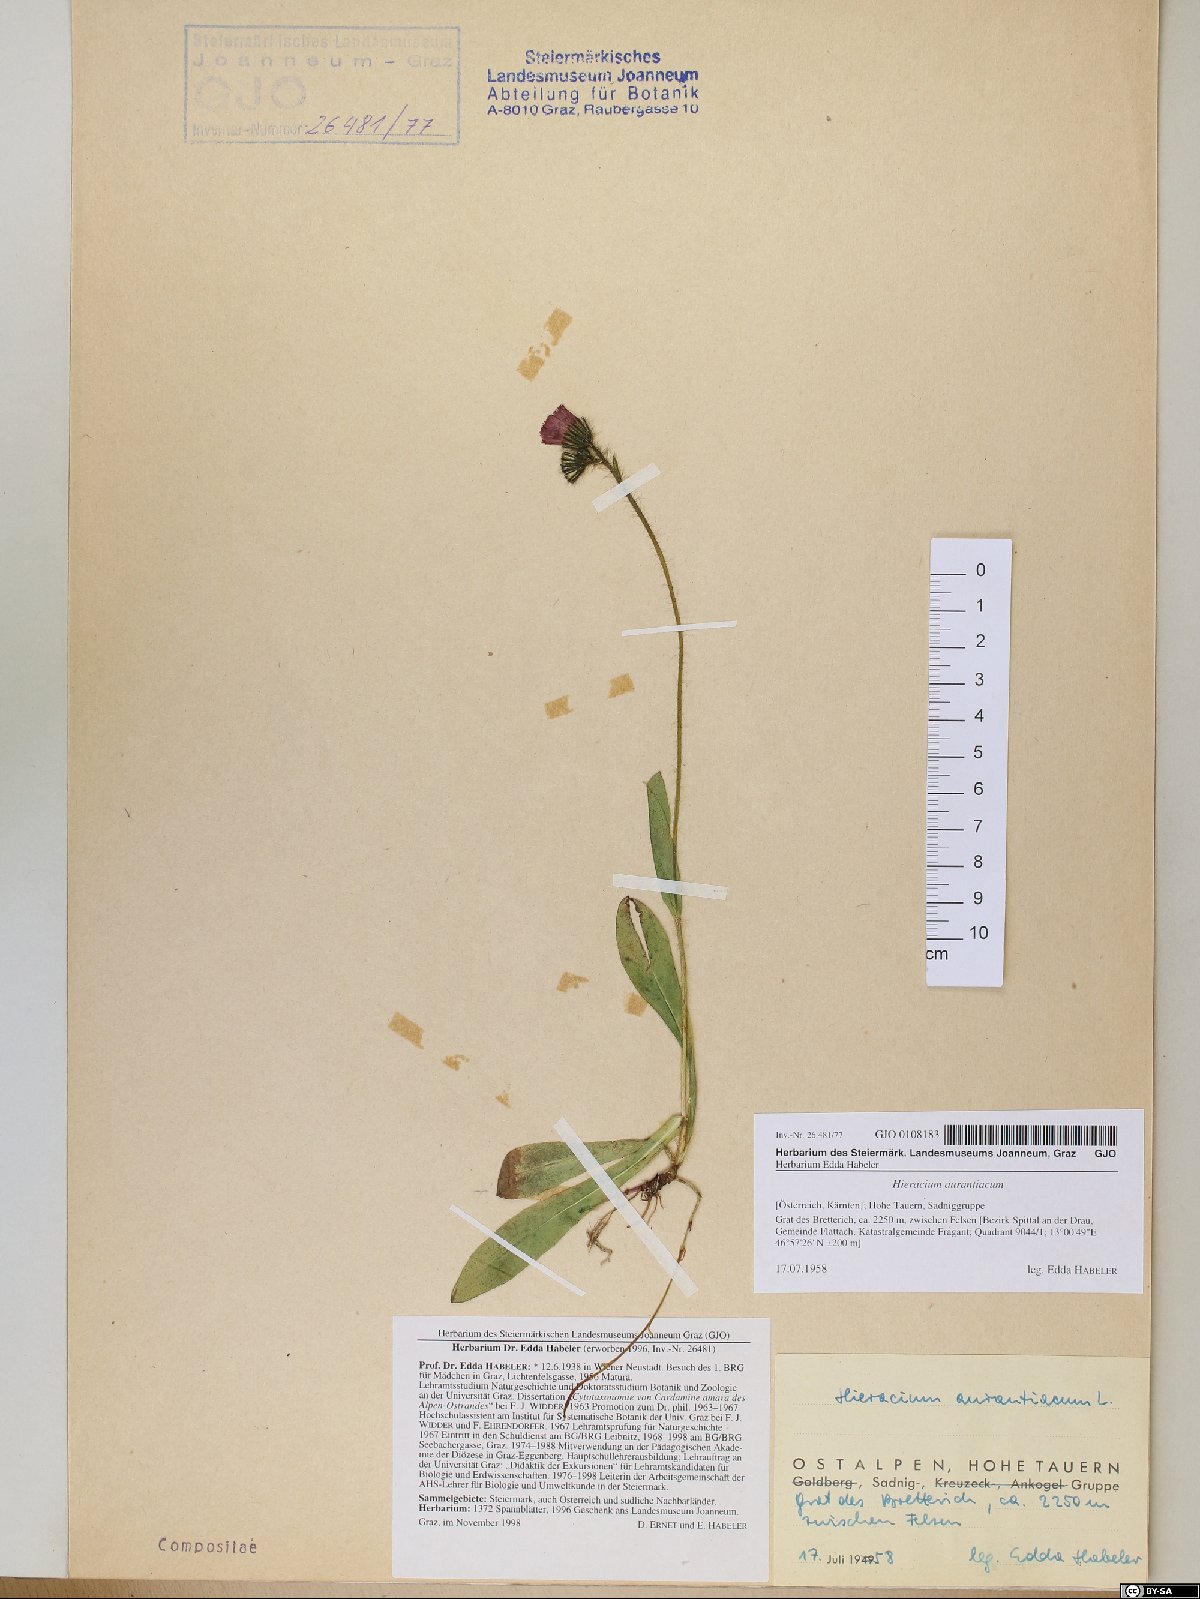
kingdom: Plantae
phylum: Tracheophyta
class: Magnoliopsida
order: Asterales
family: Asteraceae
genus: Pilosella
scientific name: Pilosella aurantiaca
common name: Fox-and-cubs
